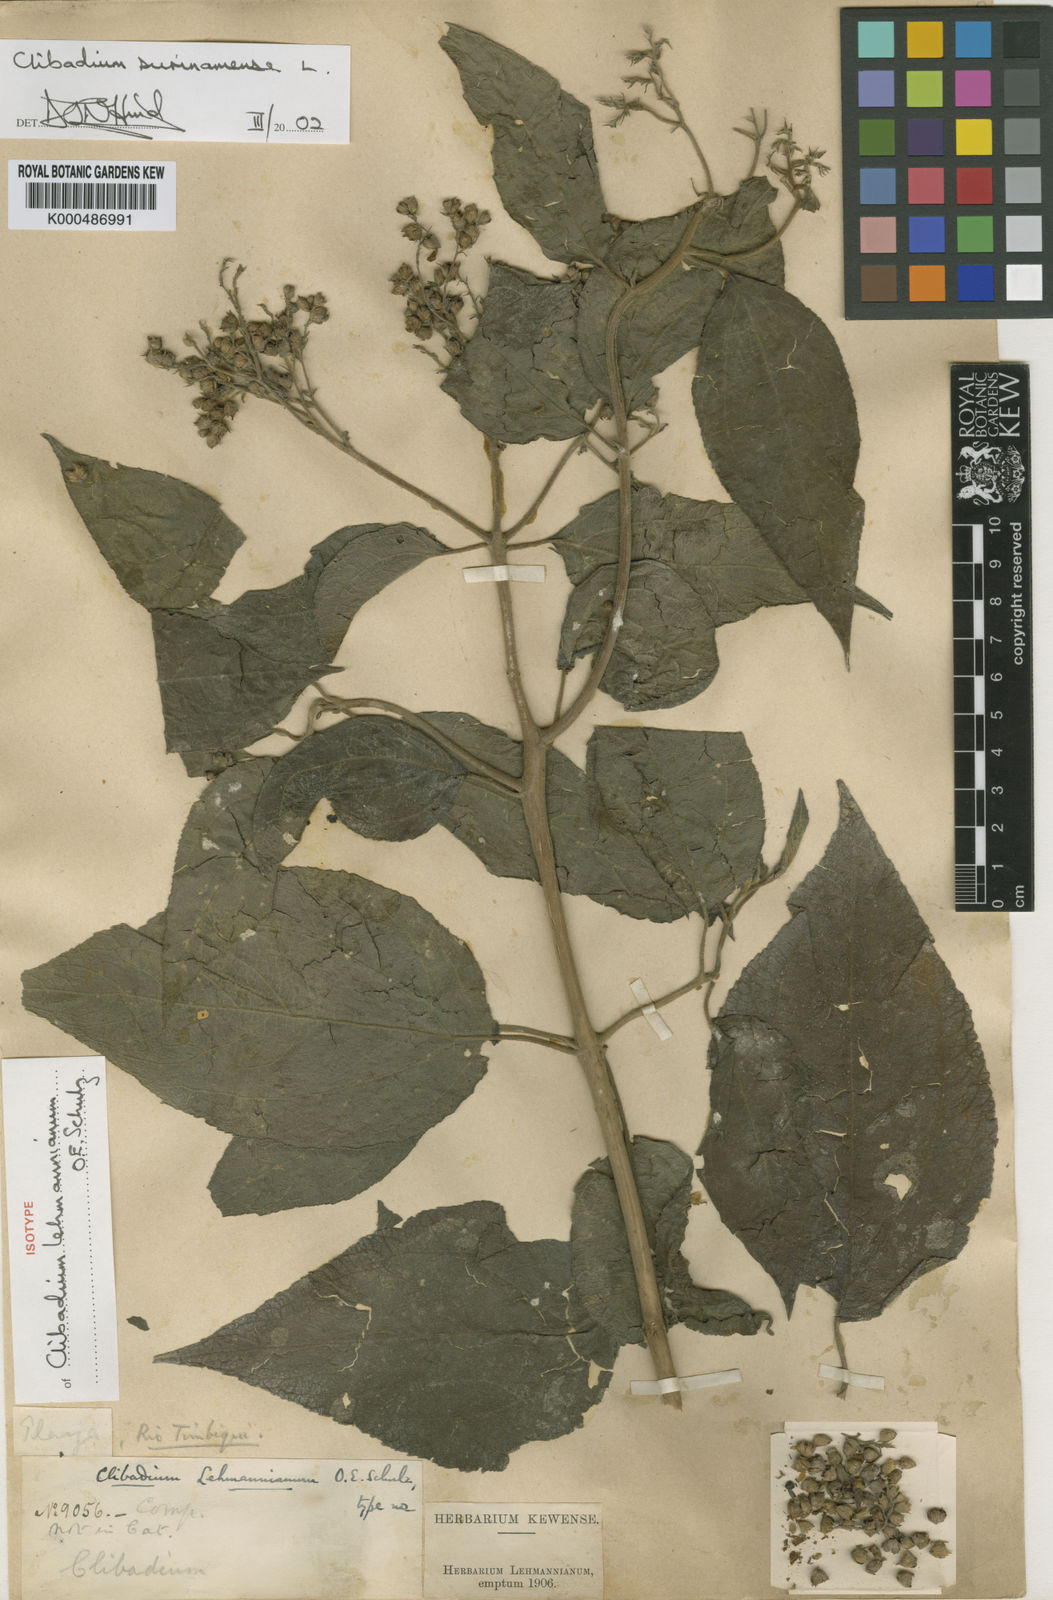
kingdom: Plantae
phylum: Tracheophyta
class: Magnoliopsida
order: Asterales
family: Asteraceae
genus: Clibadium
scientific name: Clibadium surinamense
